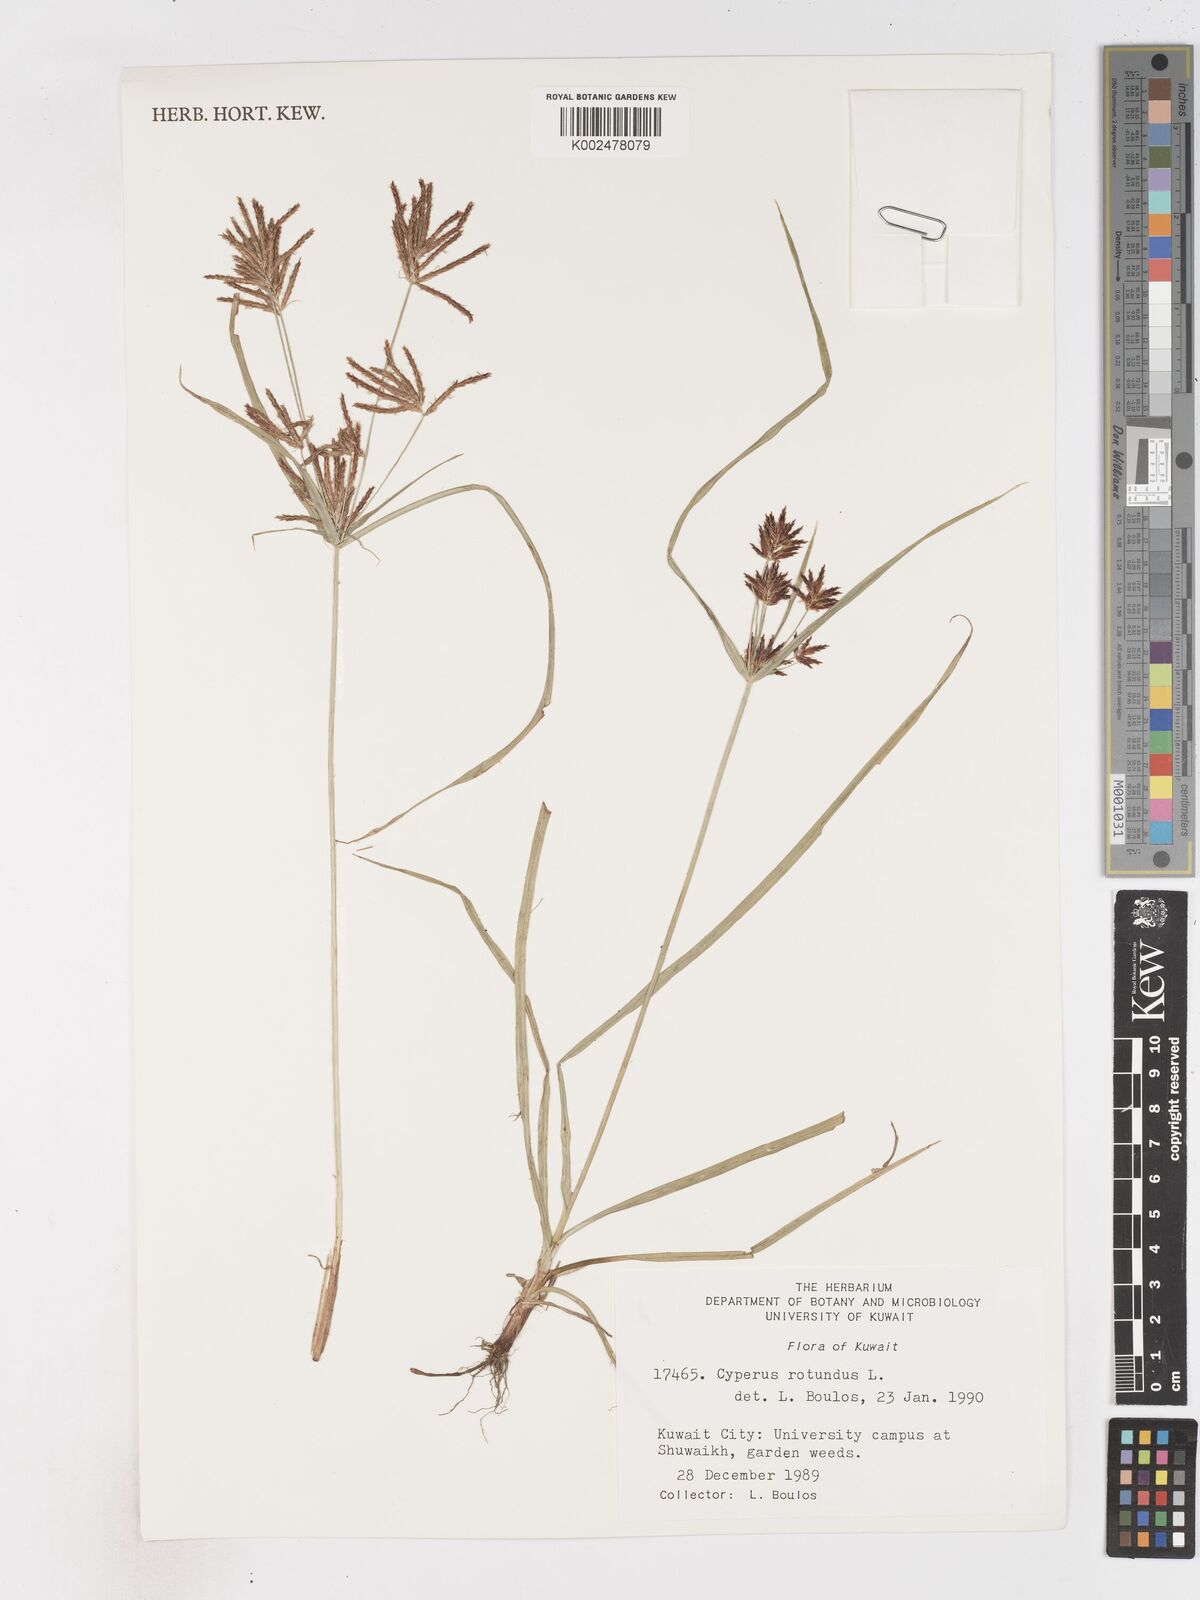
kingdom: Plantae
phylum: Tracheophyta
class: Liliopsida
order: Poales
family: Cyperaceae
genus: Cyperus
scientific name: Cyperus rotundus
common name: Nutgrass
